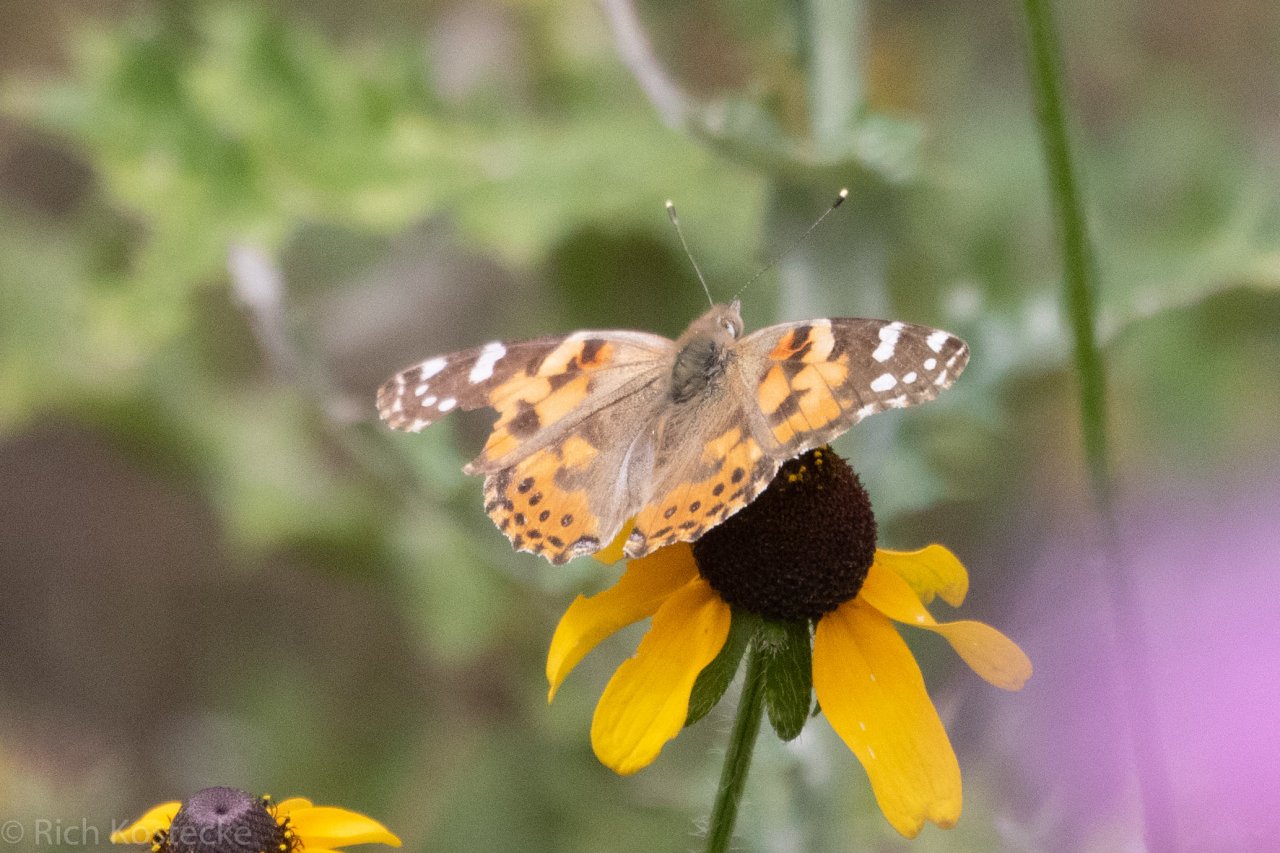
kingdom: Animalia
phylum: Arthropoda
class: Insecta
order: Lepidoptera
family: Nymphalidae
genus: Vanessa
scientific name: Vanessa cardui
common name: Painted Lady
